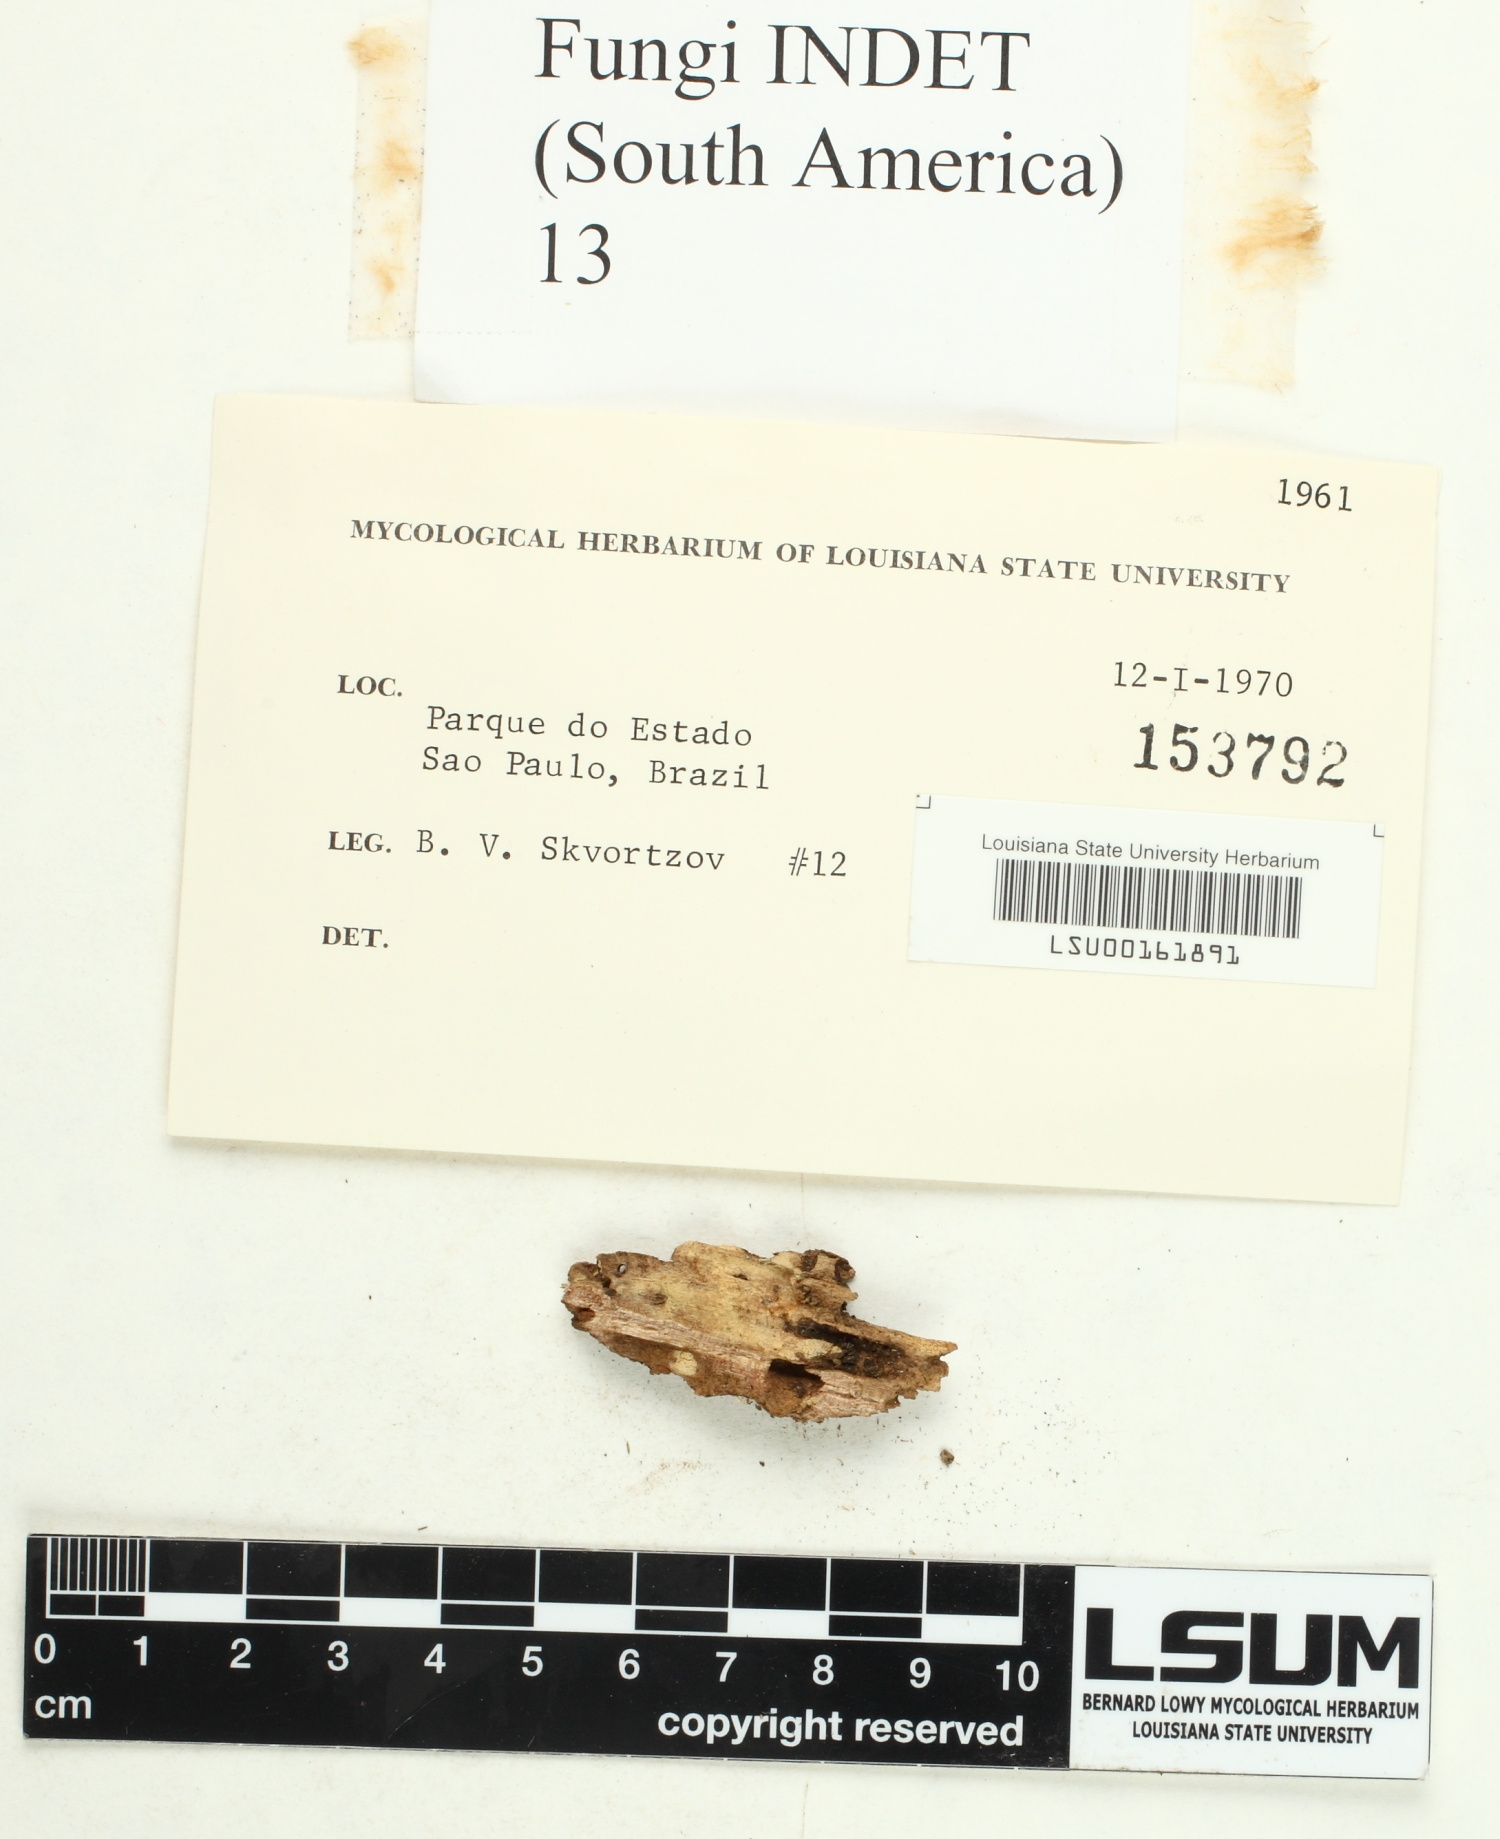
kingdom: Fungi
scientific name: Fungi
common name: Fungi
